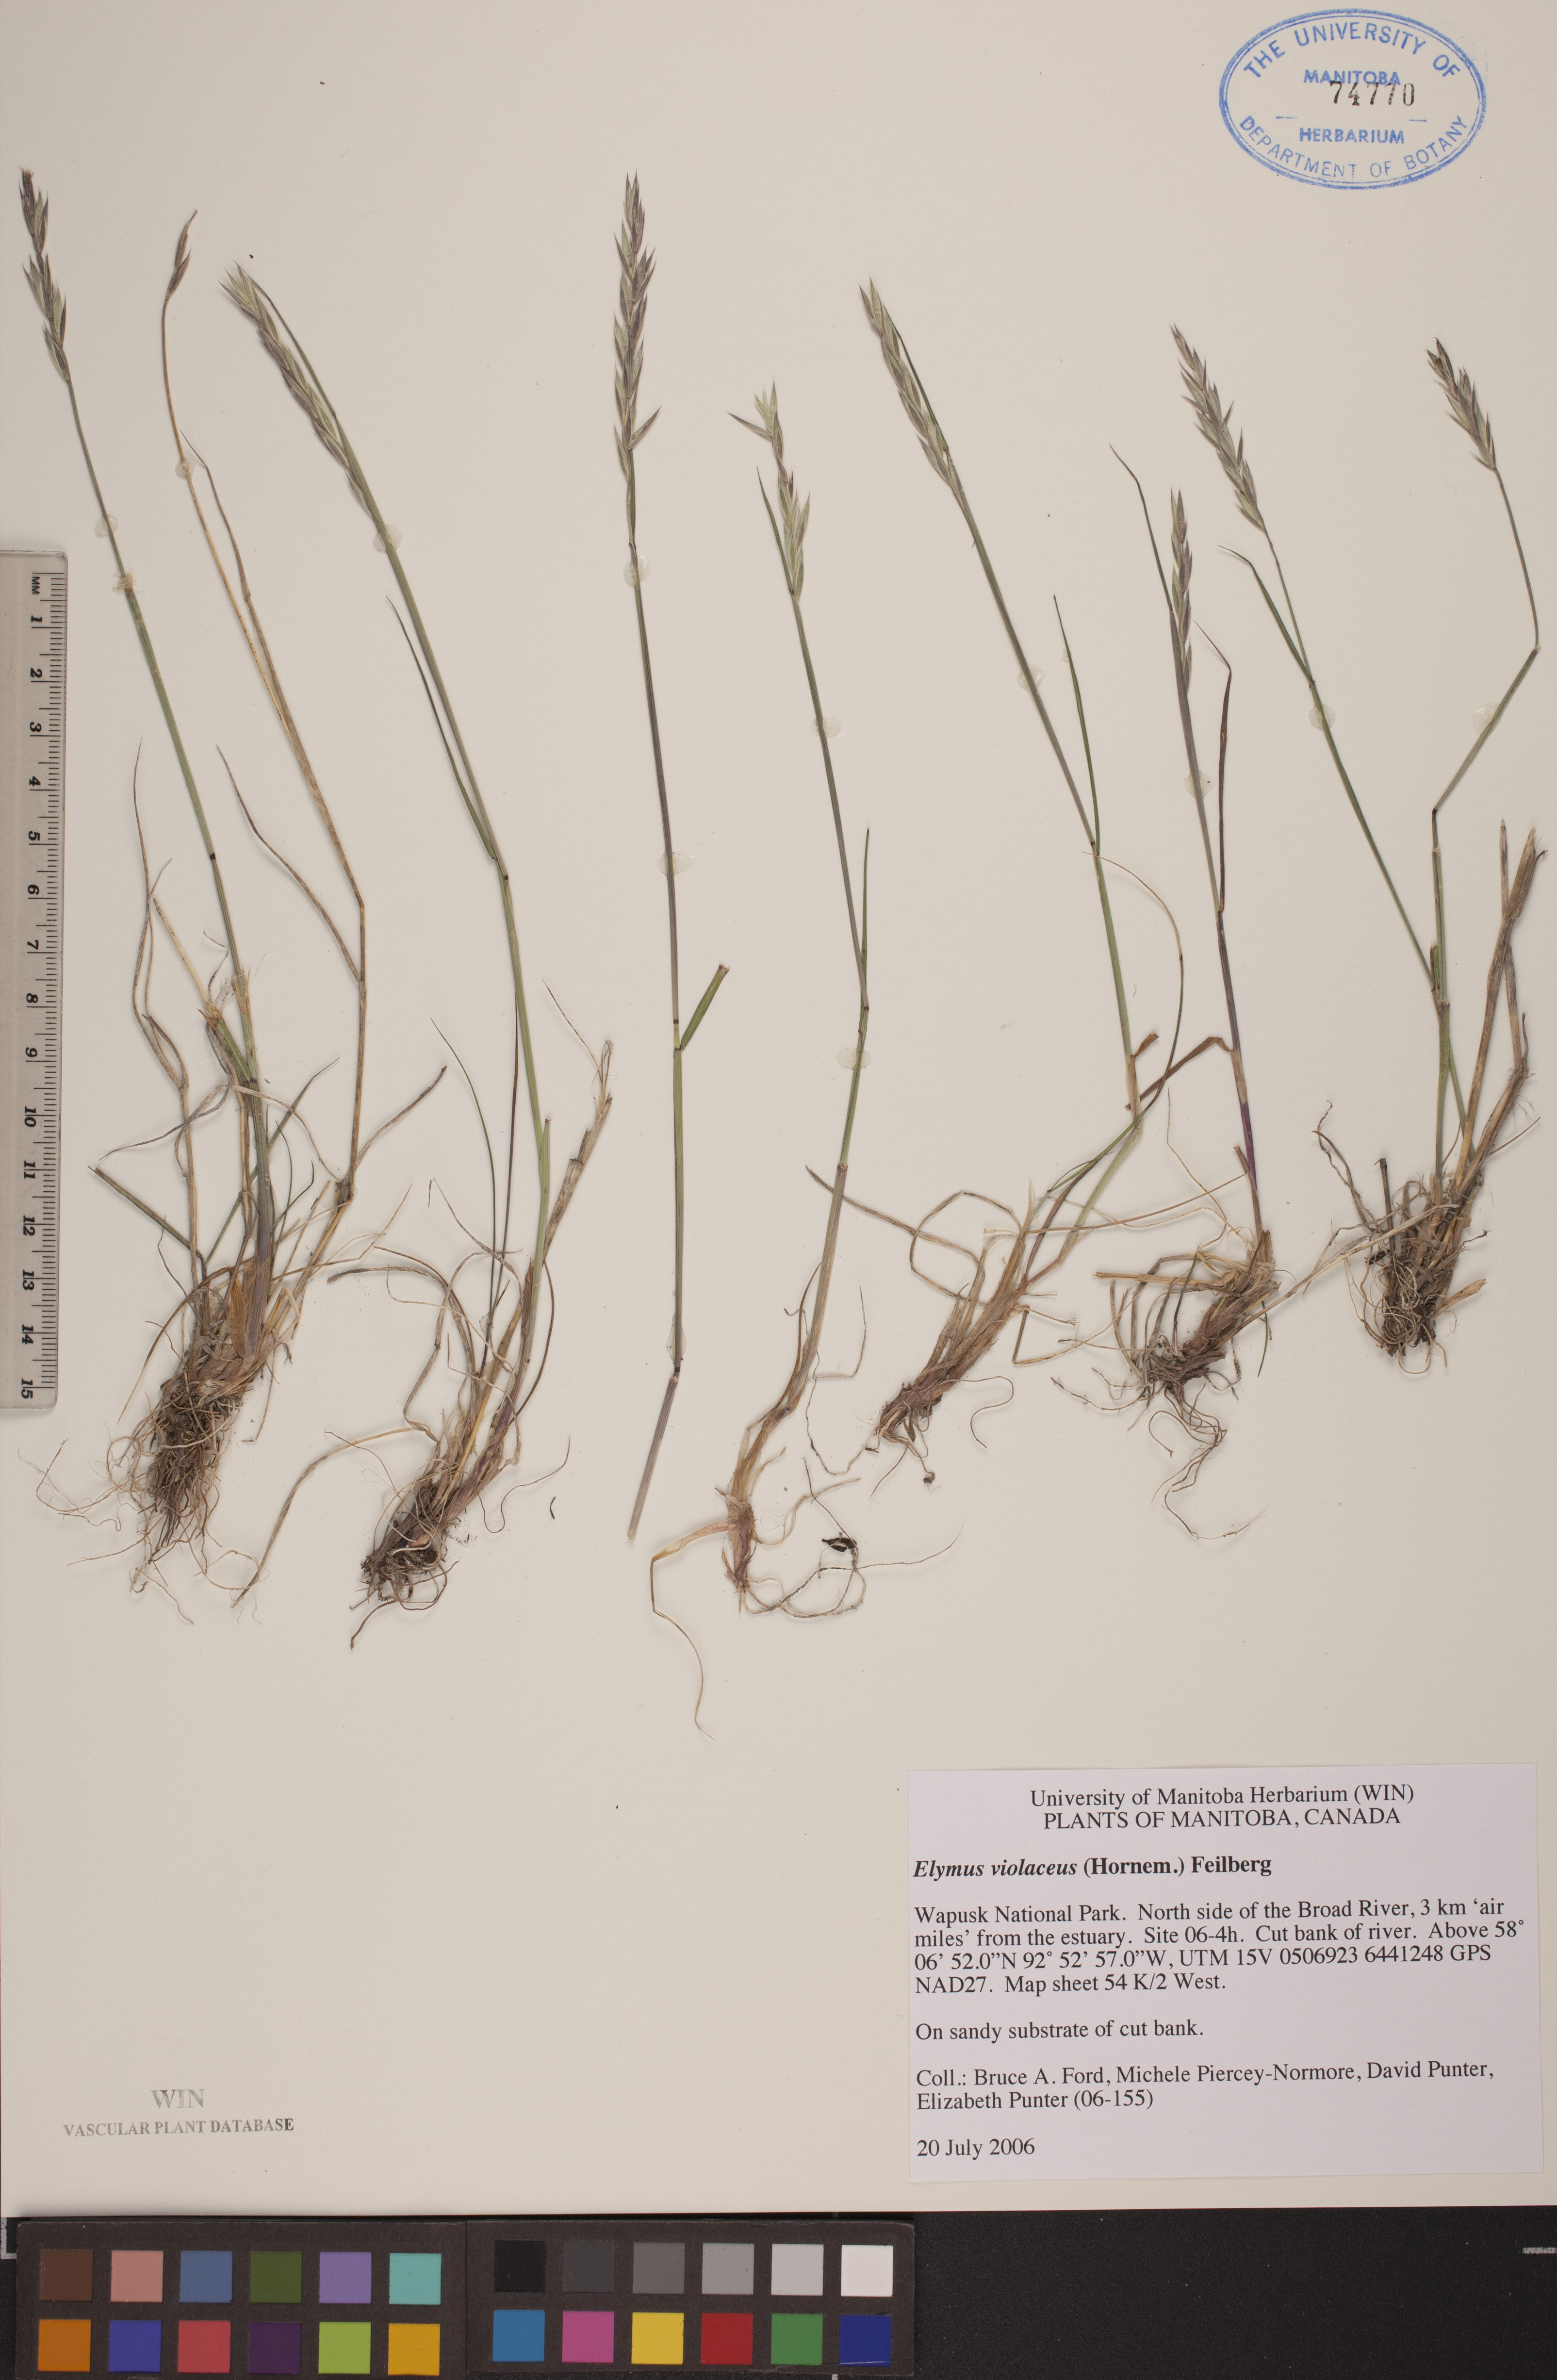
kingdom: Plantae
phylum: Tracheophyta
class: Liliopsida
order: Poales
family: Poaceae
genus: Elymus
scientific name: Elymus violaceus
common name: Arctic wheatgrass
